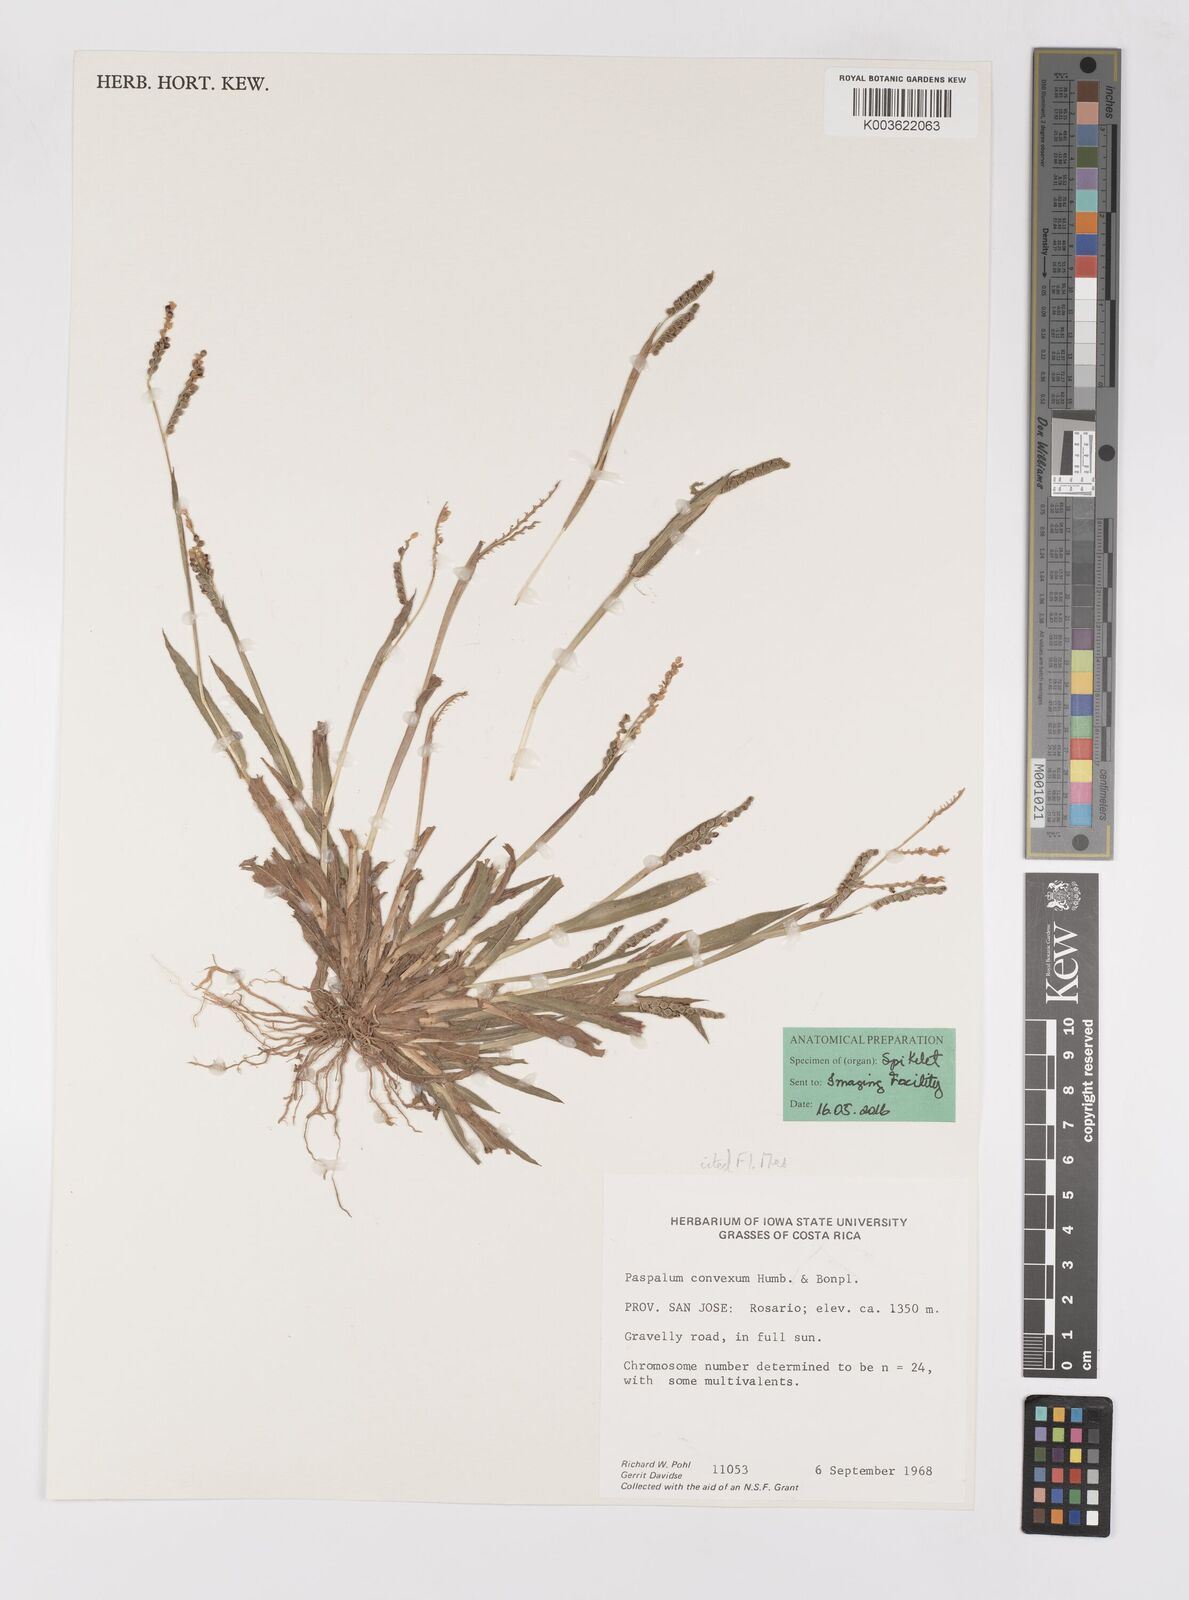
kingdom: Plantae
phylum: Tracheophyta
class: Liliopsida
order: Poales
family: Poaceae
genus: Paspalum
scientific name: Paspalum convexum
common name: Latin american crowngrass
